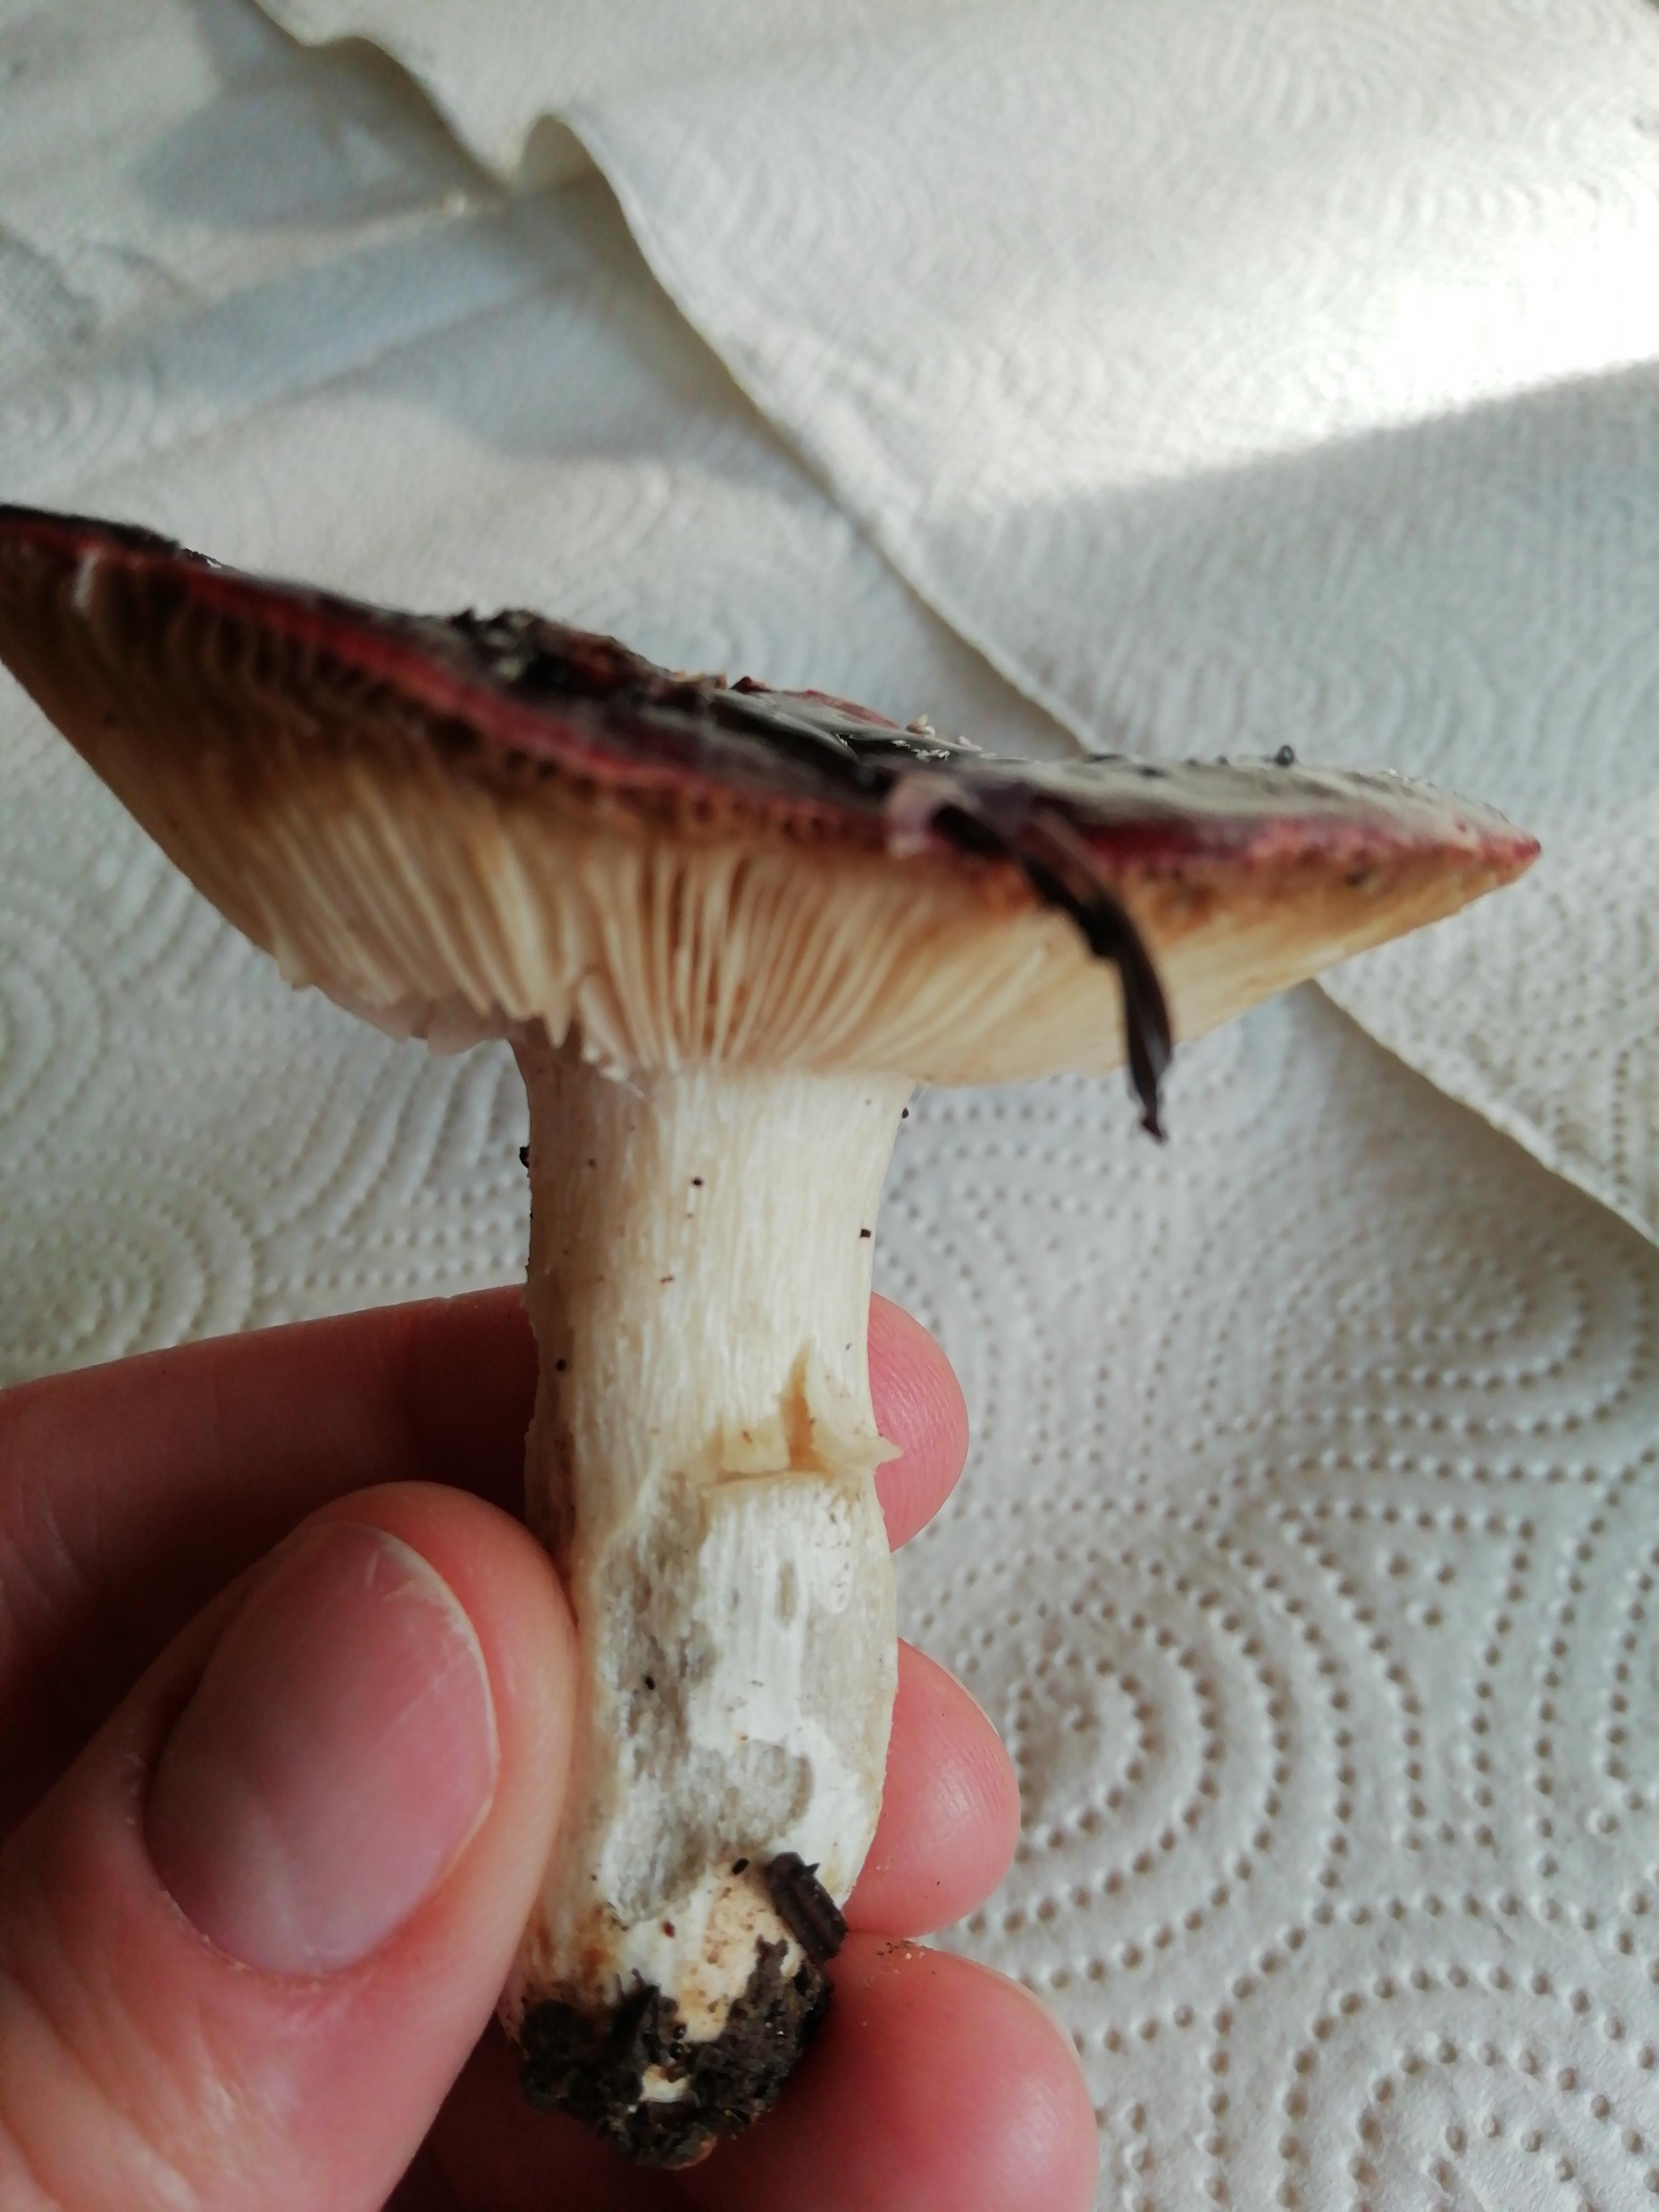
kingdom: Fungi
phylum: Basidiomycota
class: Agaricomycetes
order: Russulales
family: Russulaceae
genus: Russula
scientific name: Russula
